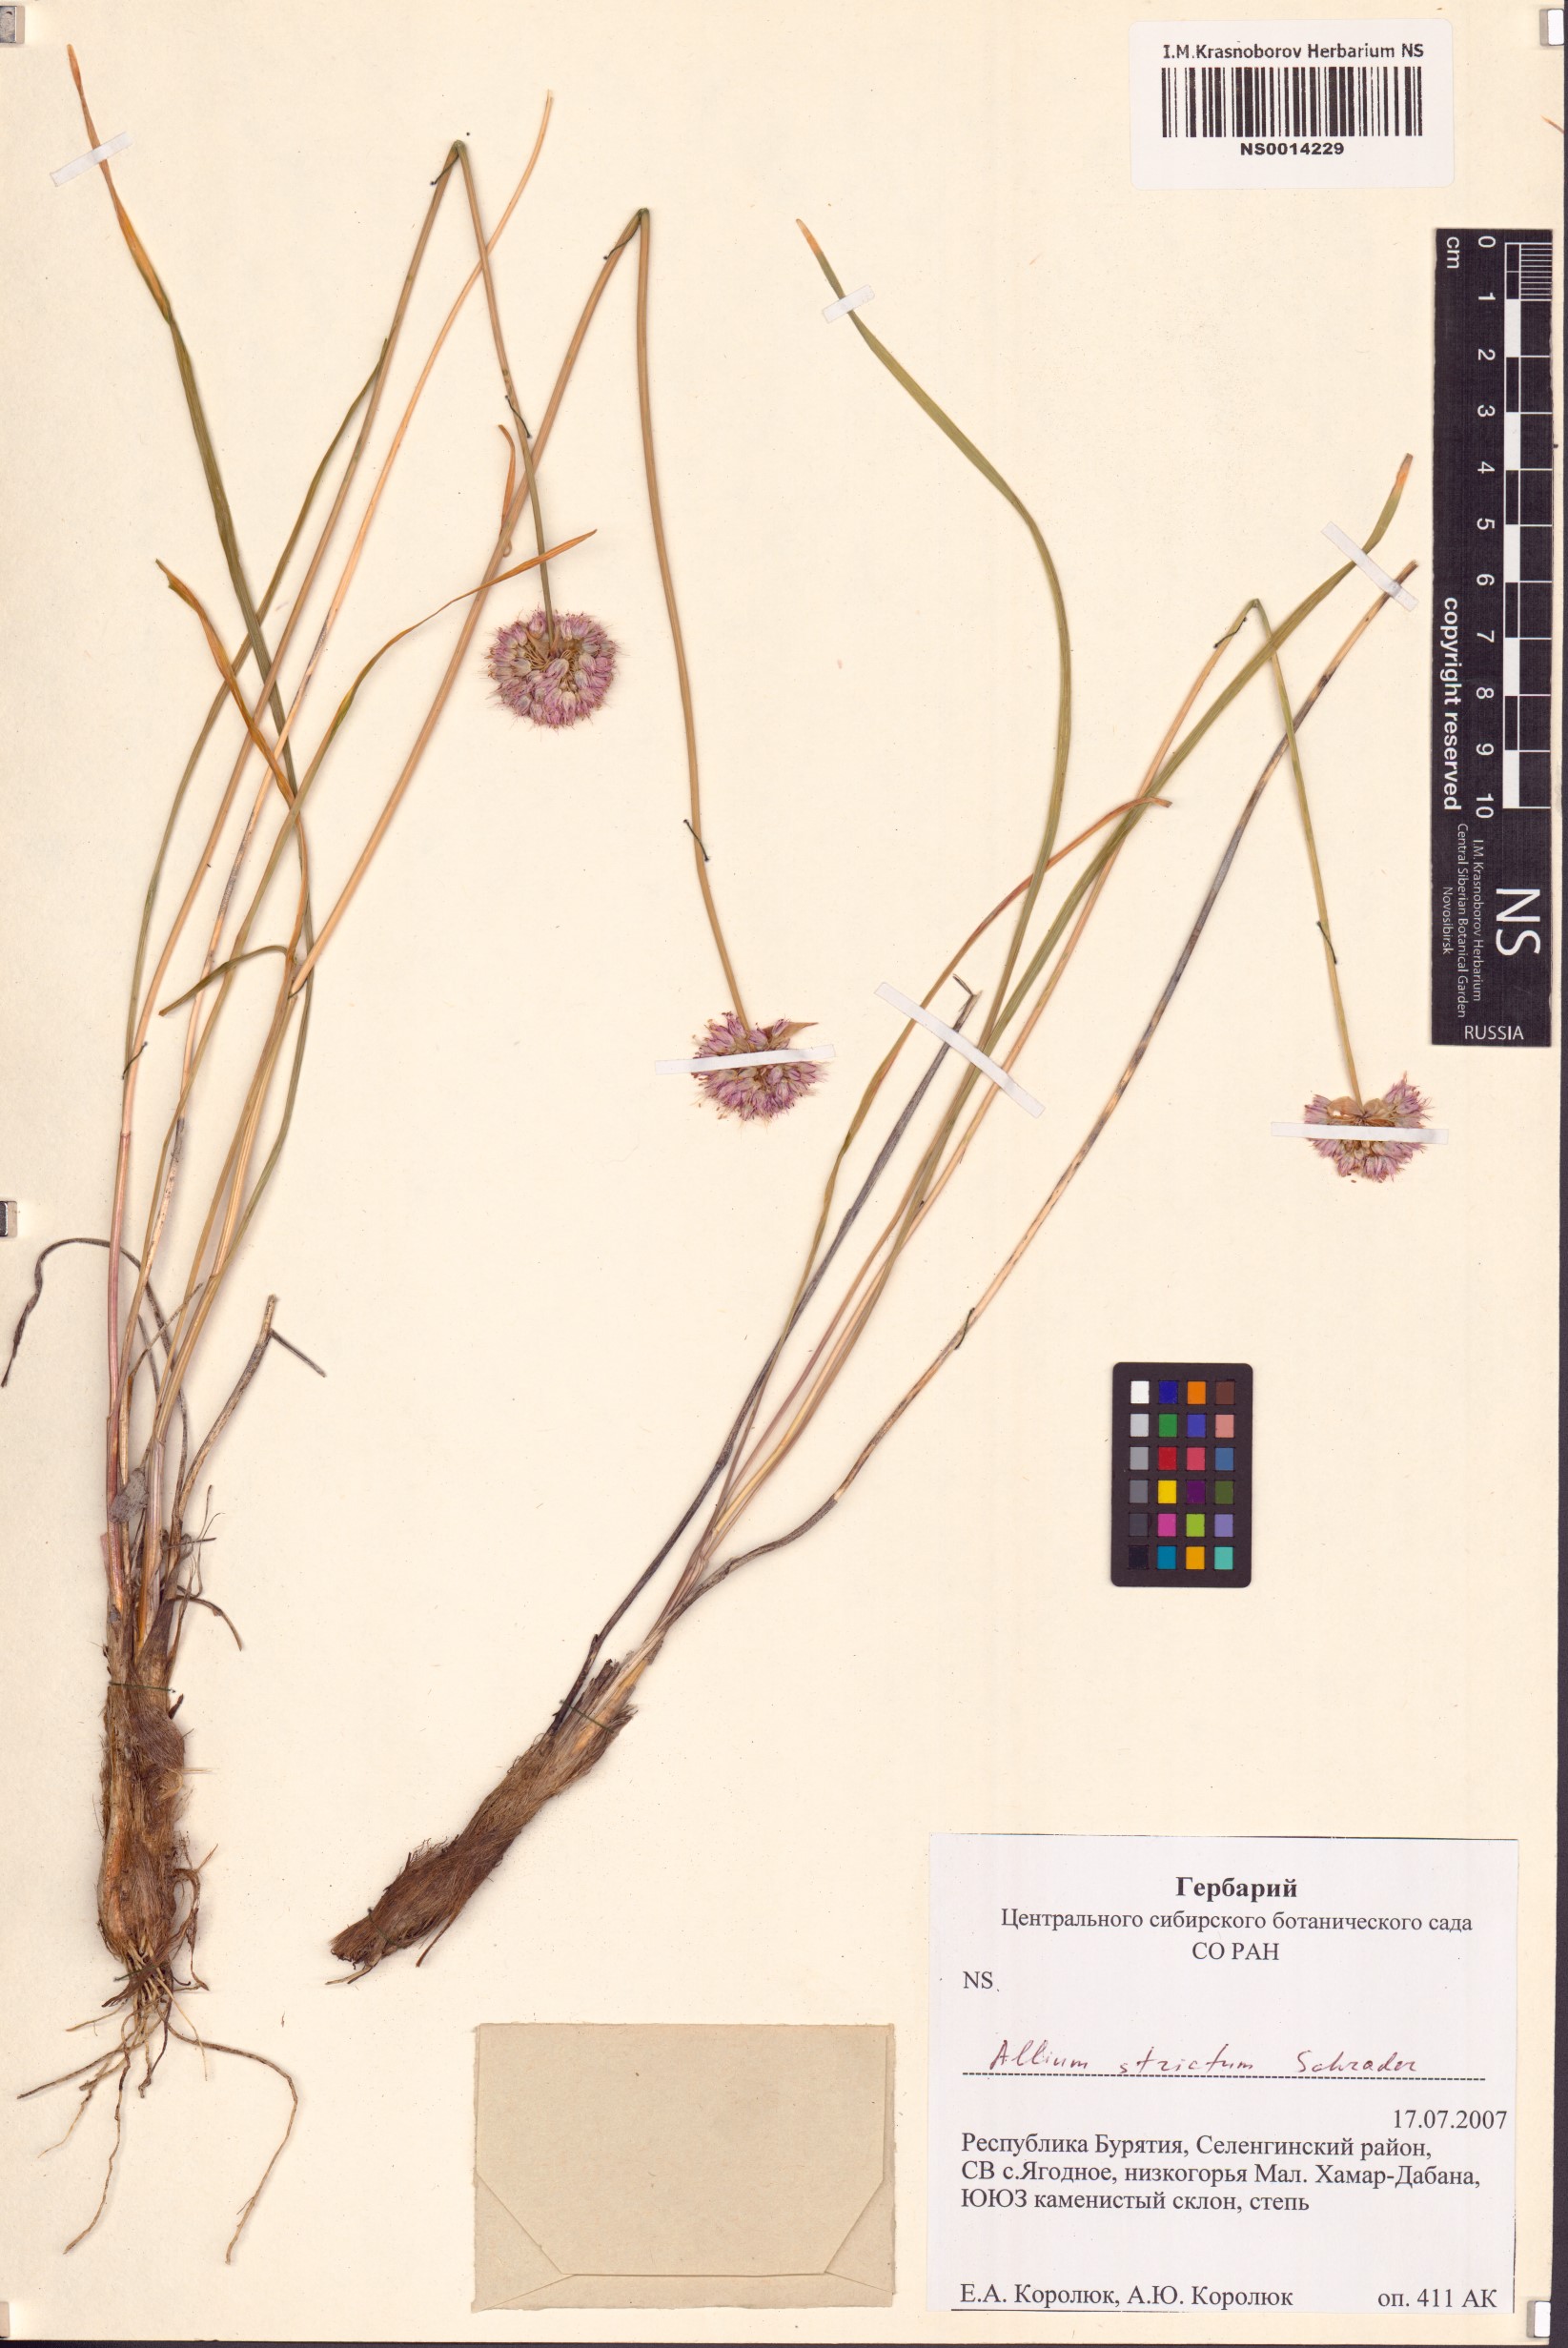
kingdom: Plantae
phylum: Tracheophyta
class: Liliopsida
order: Asparagales
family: Amaryllidaceae
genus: Allium
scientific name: Allium strictum
